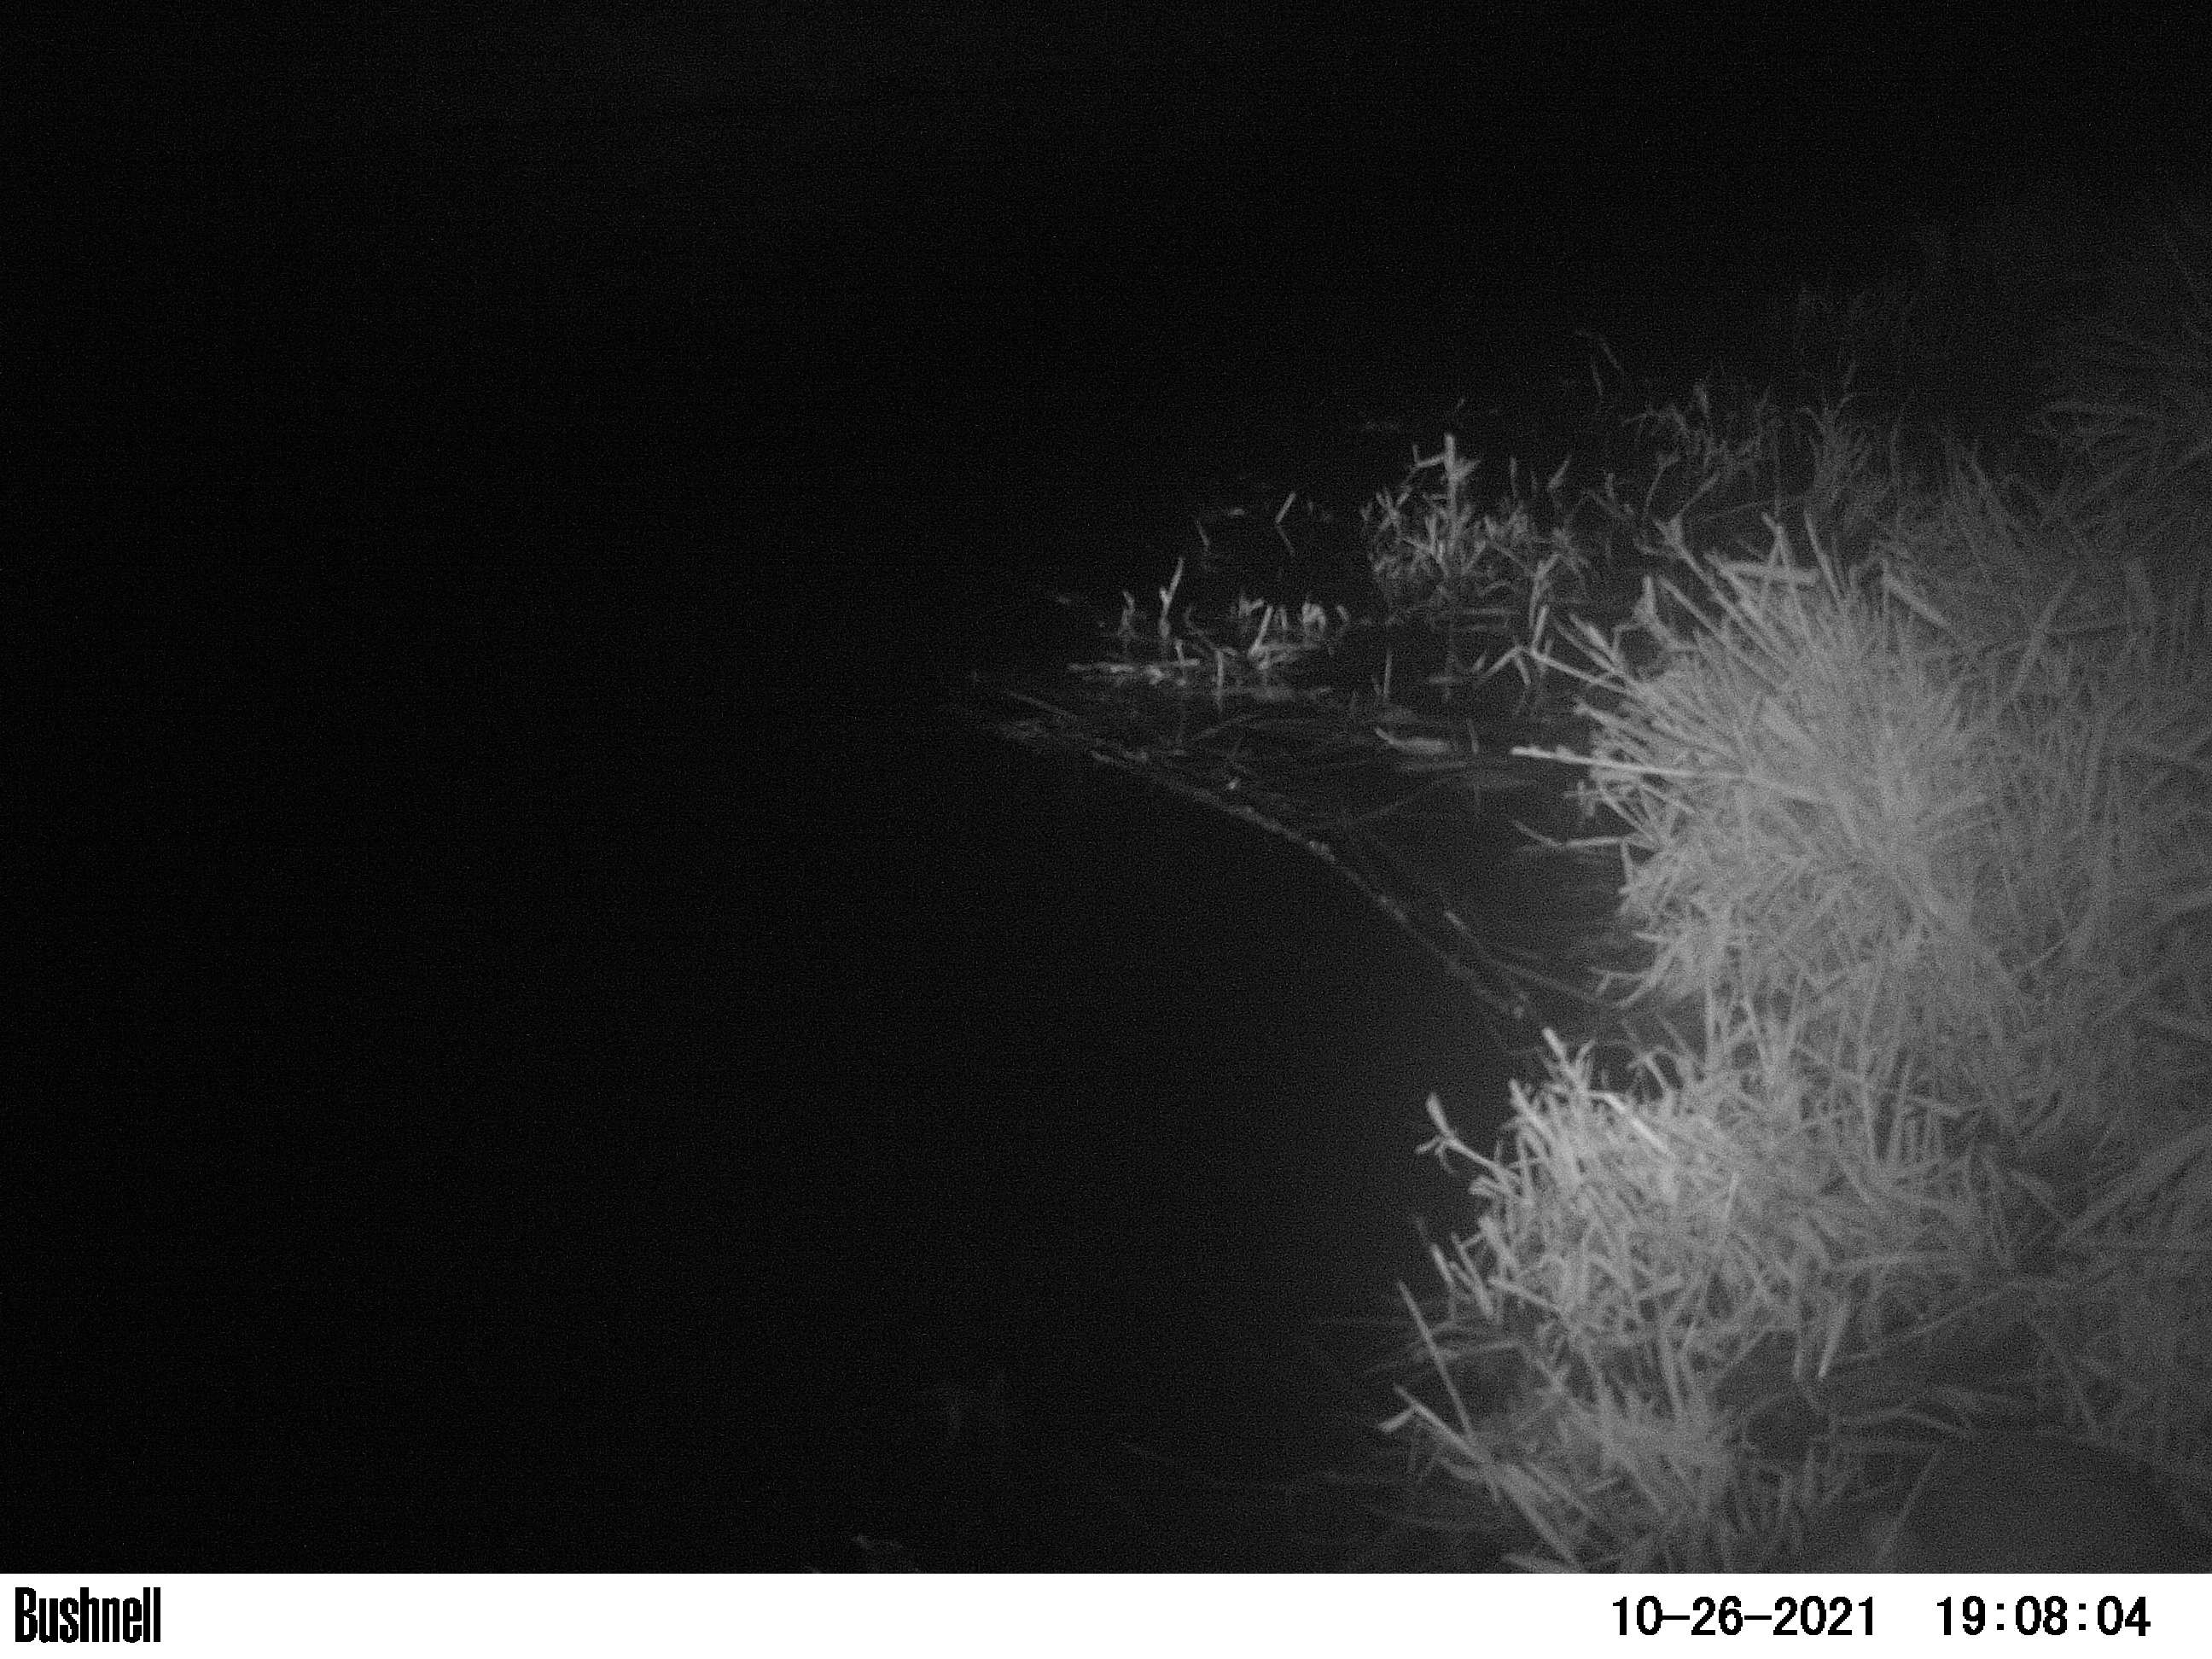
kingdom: Animalia
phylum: Chordata
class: Mammalia
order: Rodentia
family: Muridae
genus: Rattus
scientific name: Rattus norvegicus
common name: Brown rat
